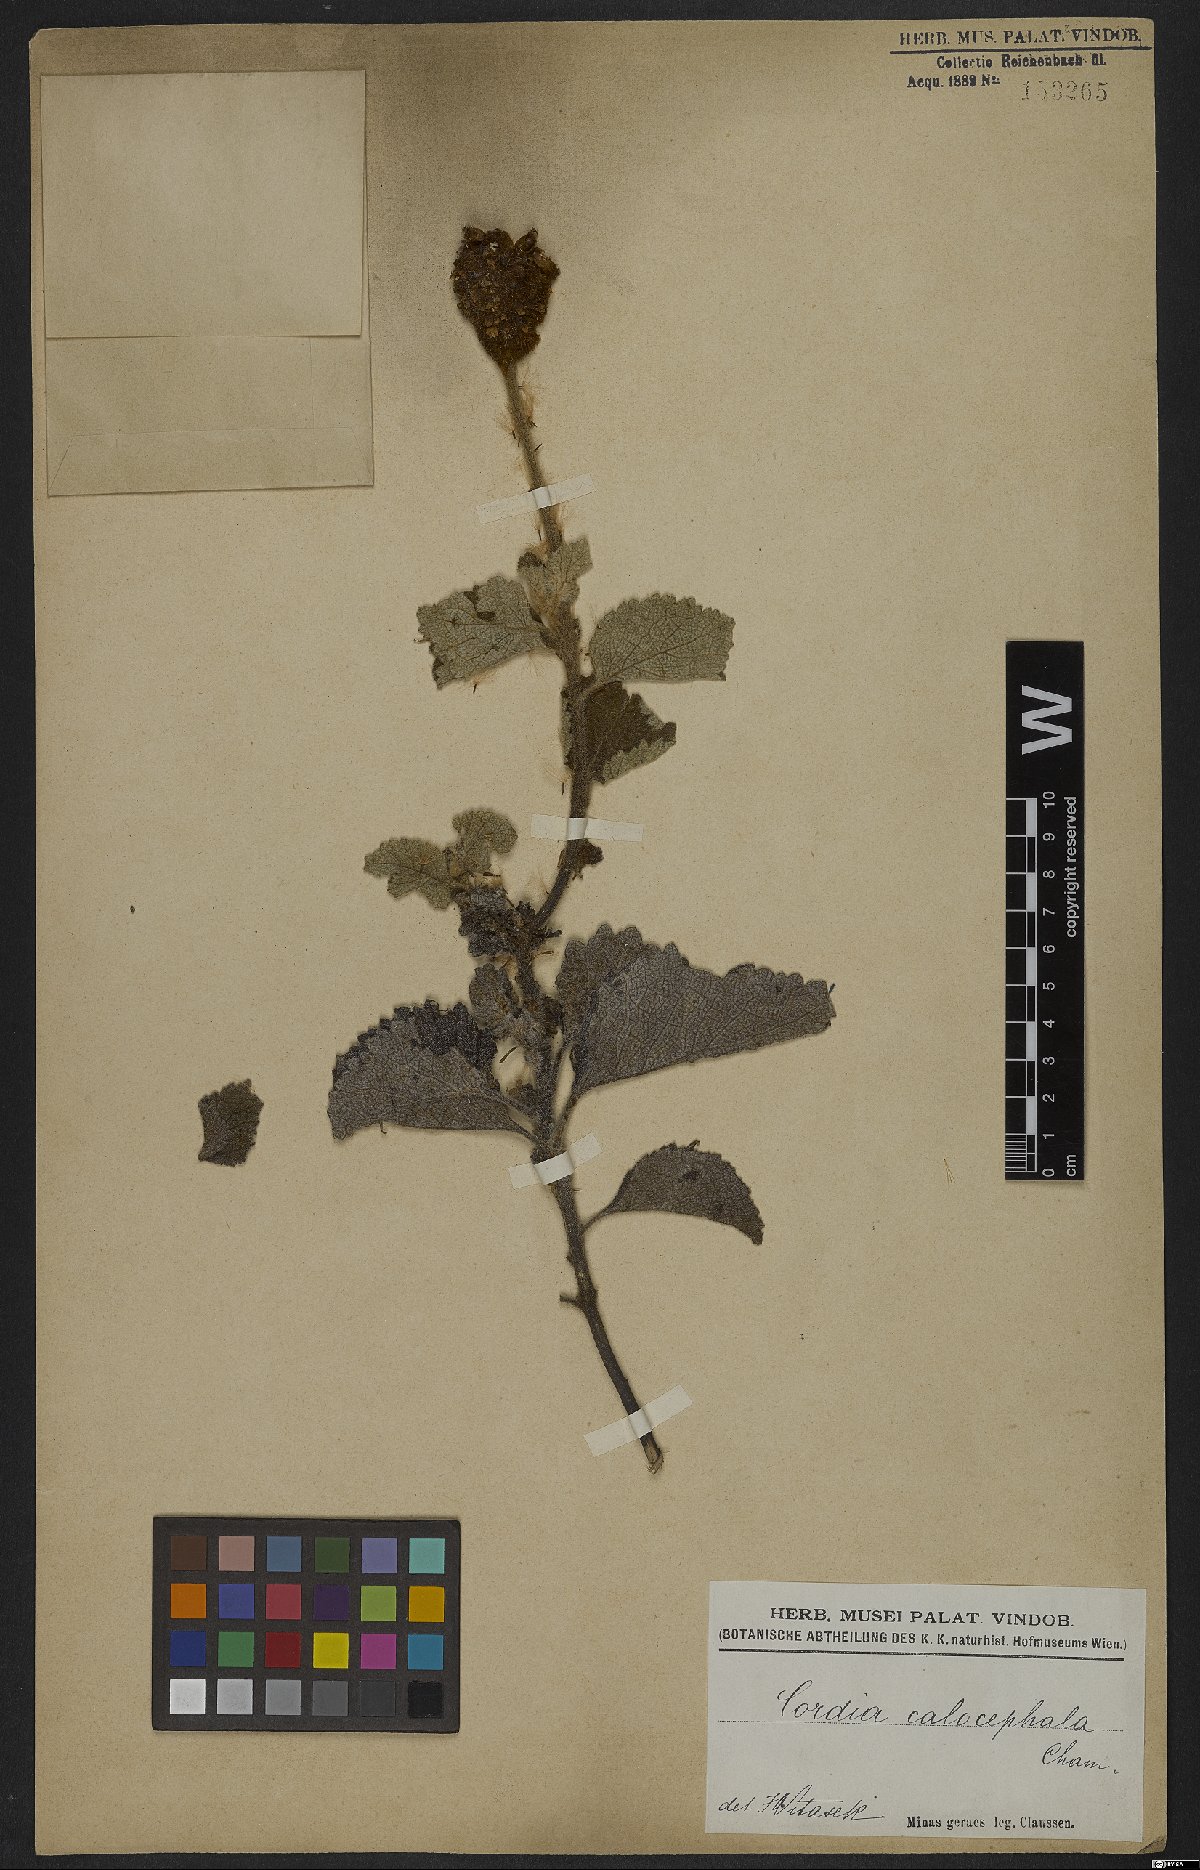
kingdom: Plantae
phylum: Tracheophyta
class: Magnoliopsida
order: Boraginales
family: Cordiaceae
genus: Varronia
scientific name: Varronia calocephala
